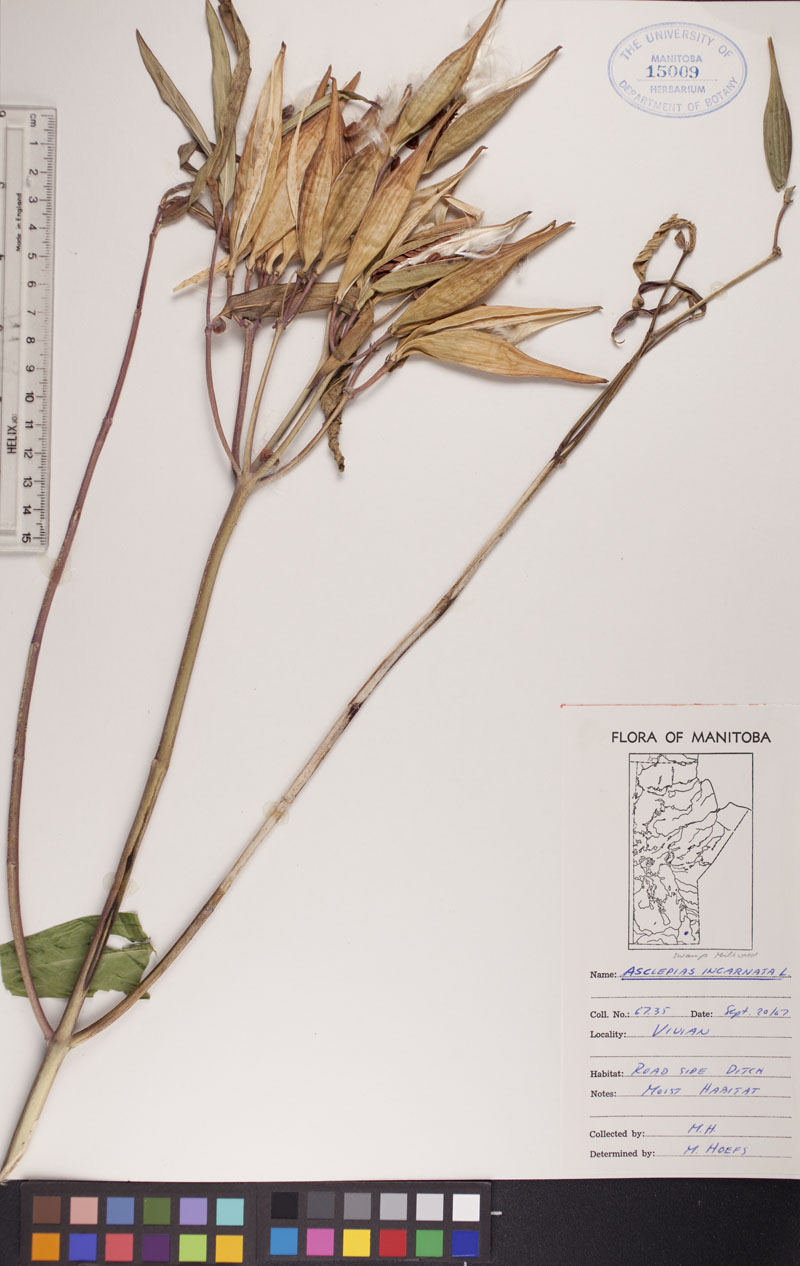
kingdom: Plantae
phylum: Tracheophyta
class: Magnoliopsida
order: Gentianales
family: Apocynaceae
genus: Asclepias
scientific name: Asclepias incarnata
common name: Swamp milkweed
